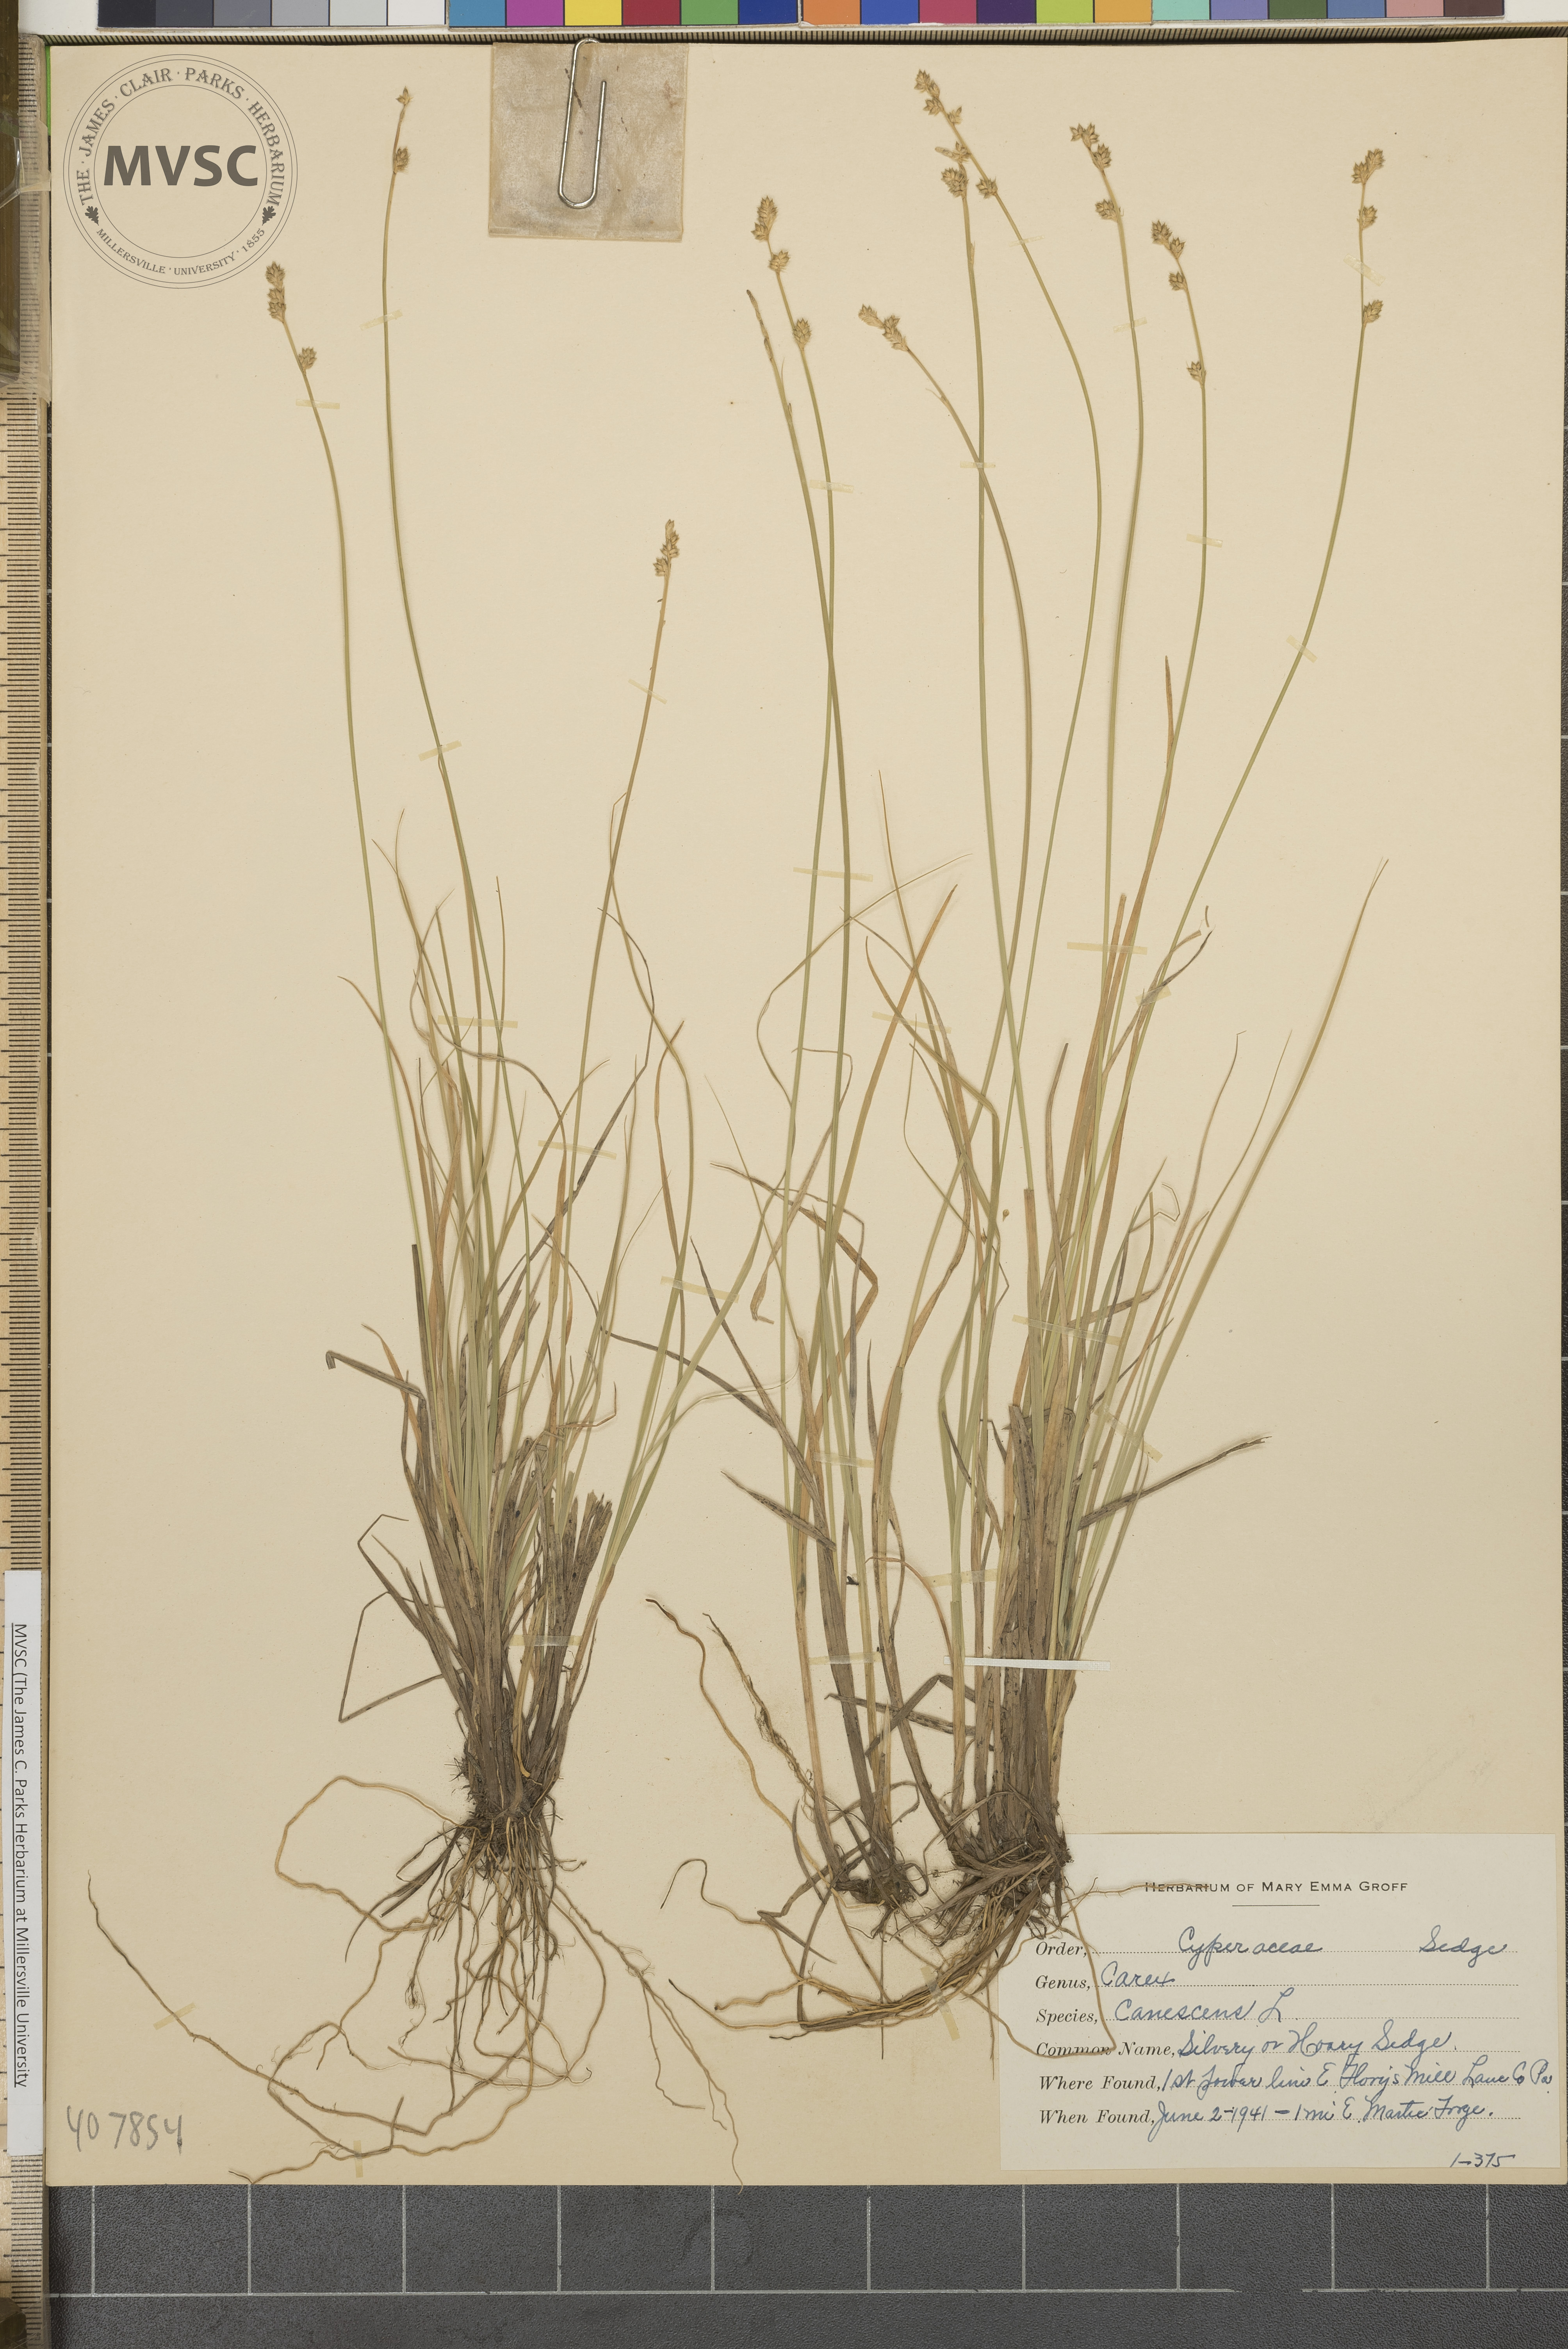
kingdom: Plantae
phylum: Tracheophyta
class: Liliopsida
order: Poales
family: Cyperaceae
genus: Carex
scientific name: Carex canescens
